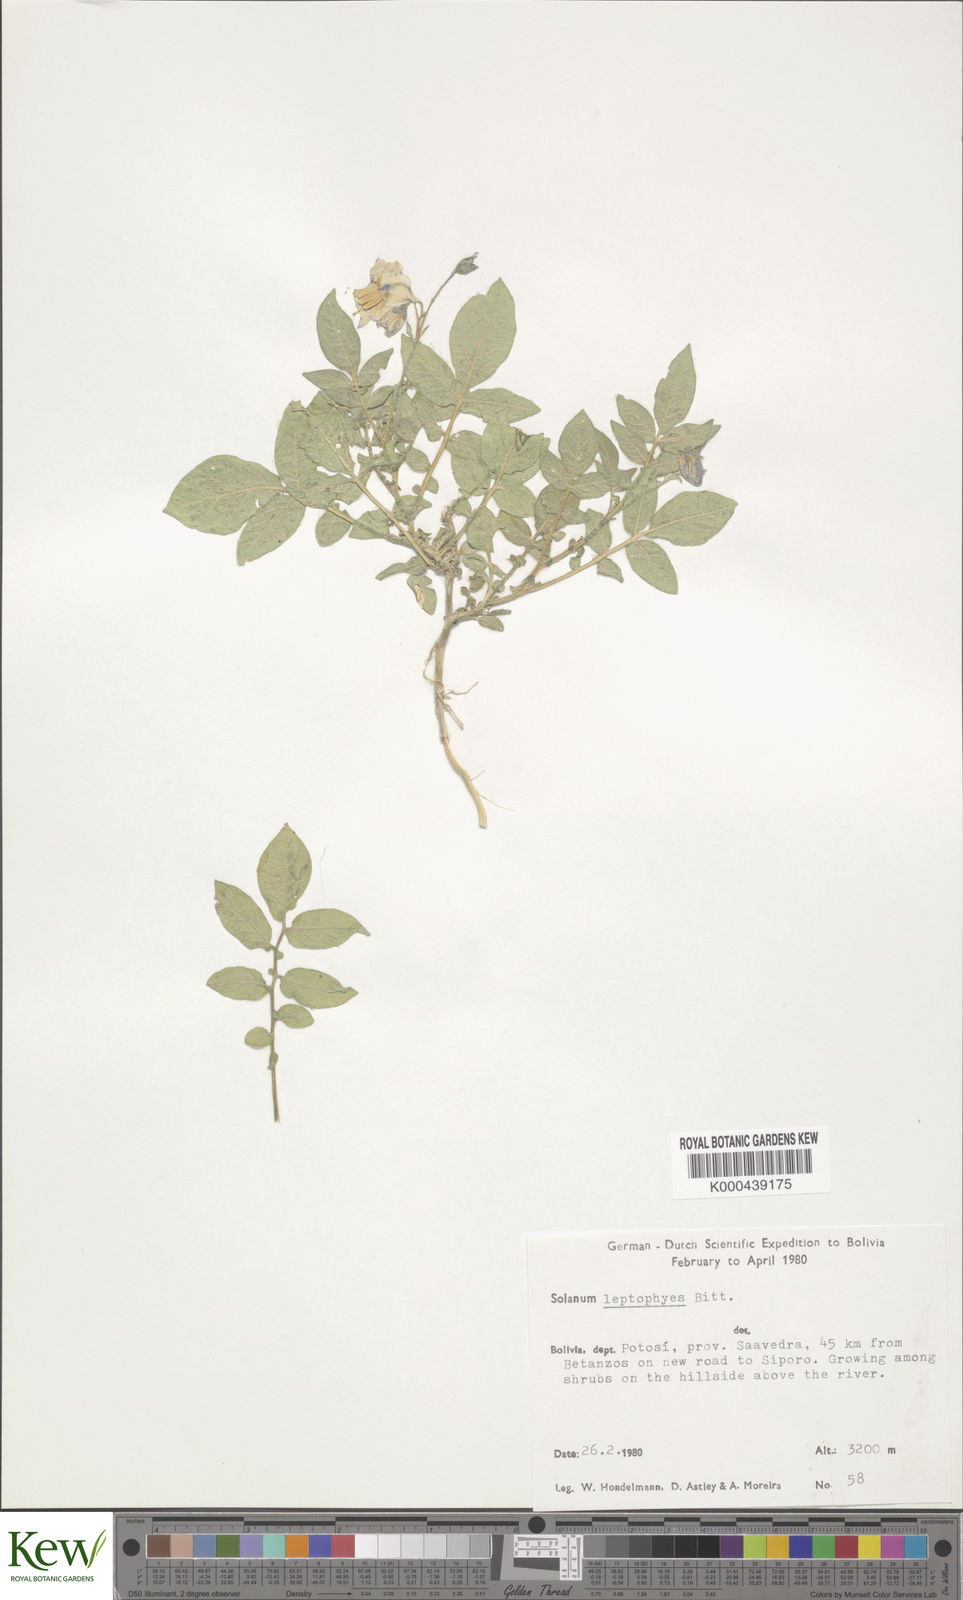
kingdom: Plantae
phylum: Tracheophyta
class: Magnoliopsida
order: Solanales
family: Solanaceae
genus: Solanum
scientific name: Solanum brevicaule
